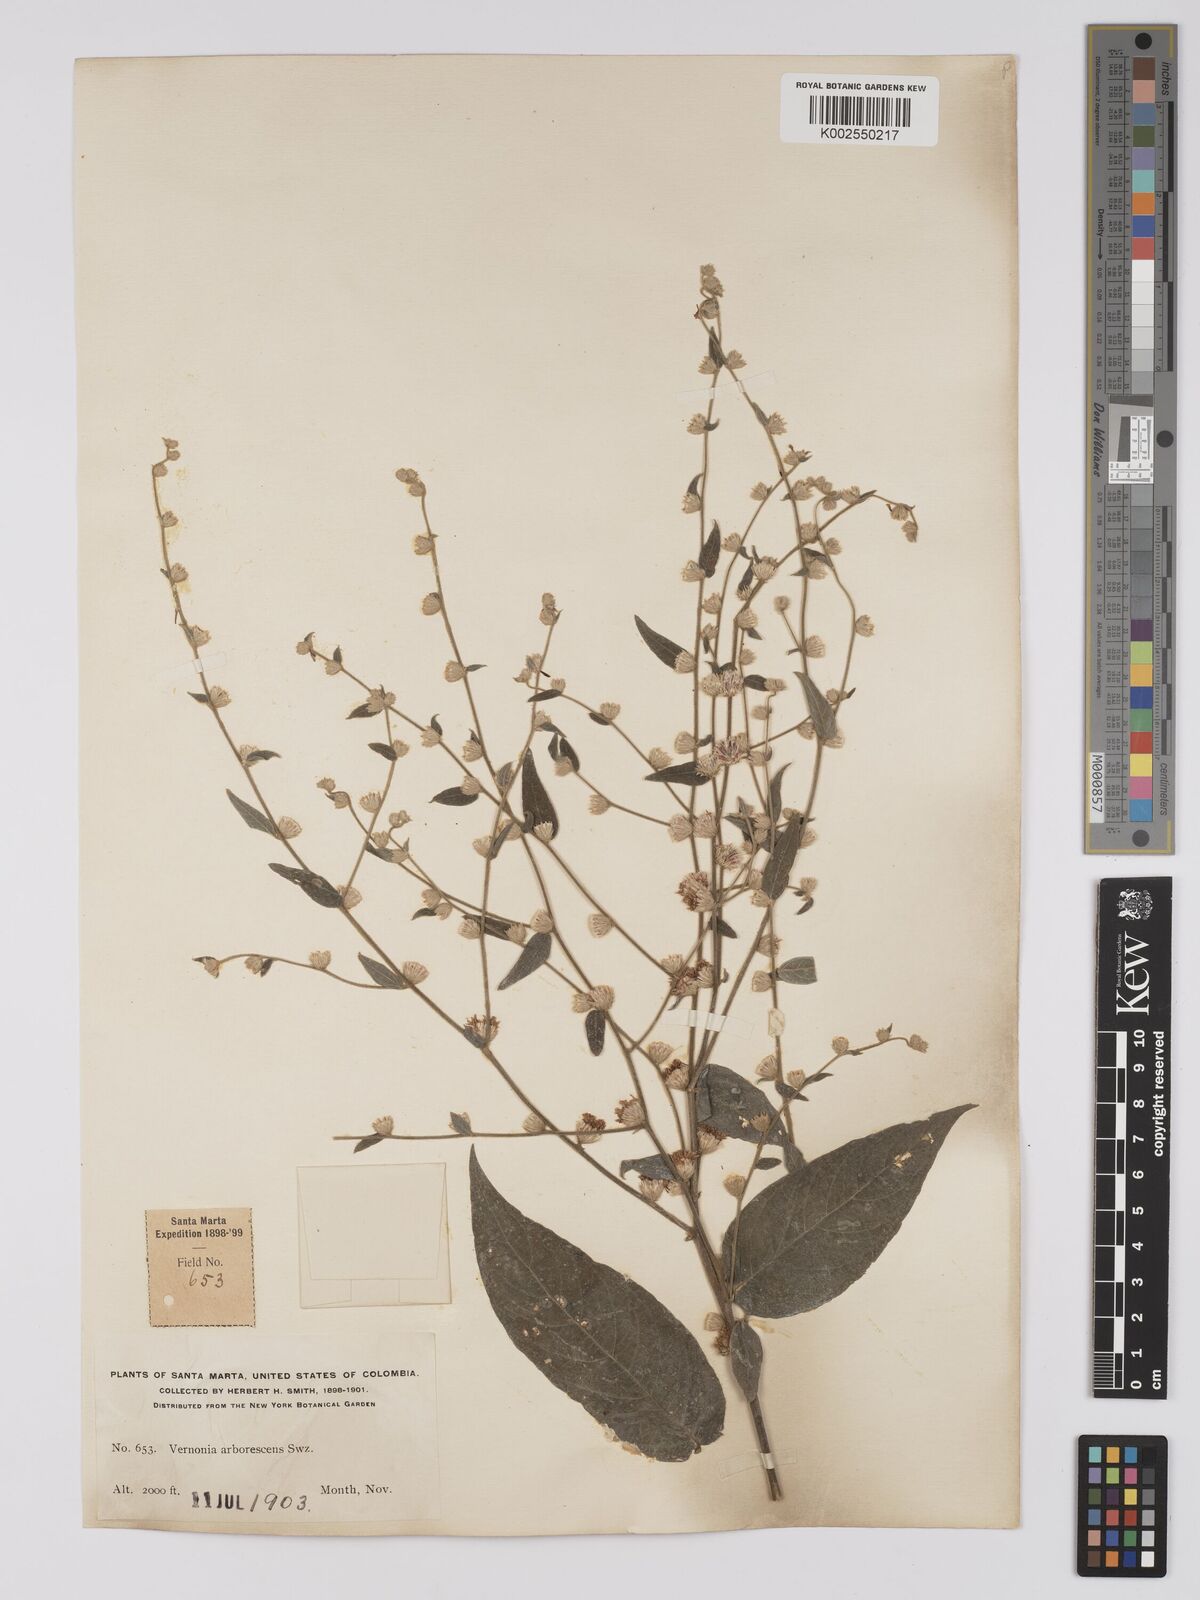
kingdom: Plantae
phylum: Tracheophyta
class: Magnoliopsida
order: Asterales
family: Asteraceae
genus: Lepidaploa
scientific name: Lepidaploa arborescens
